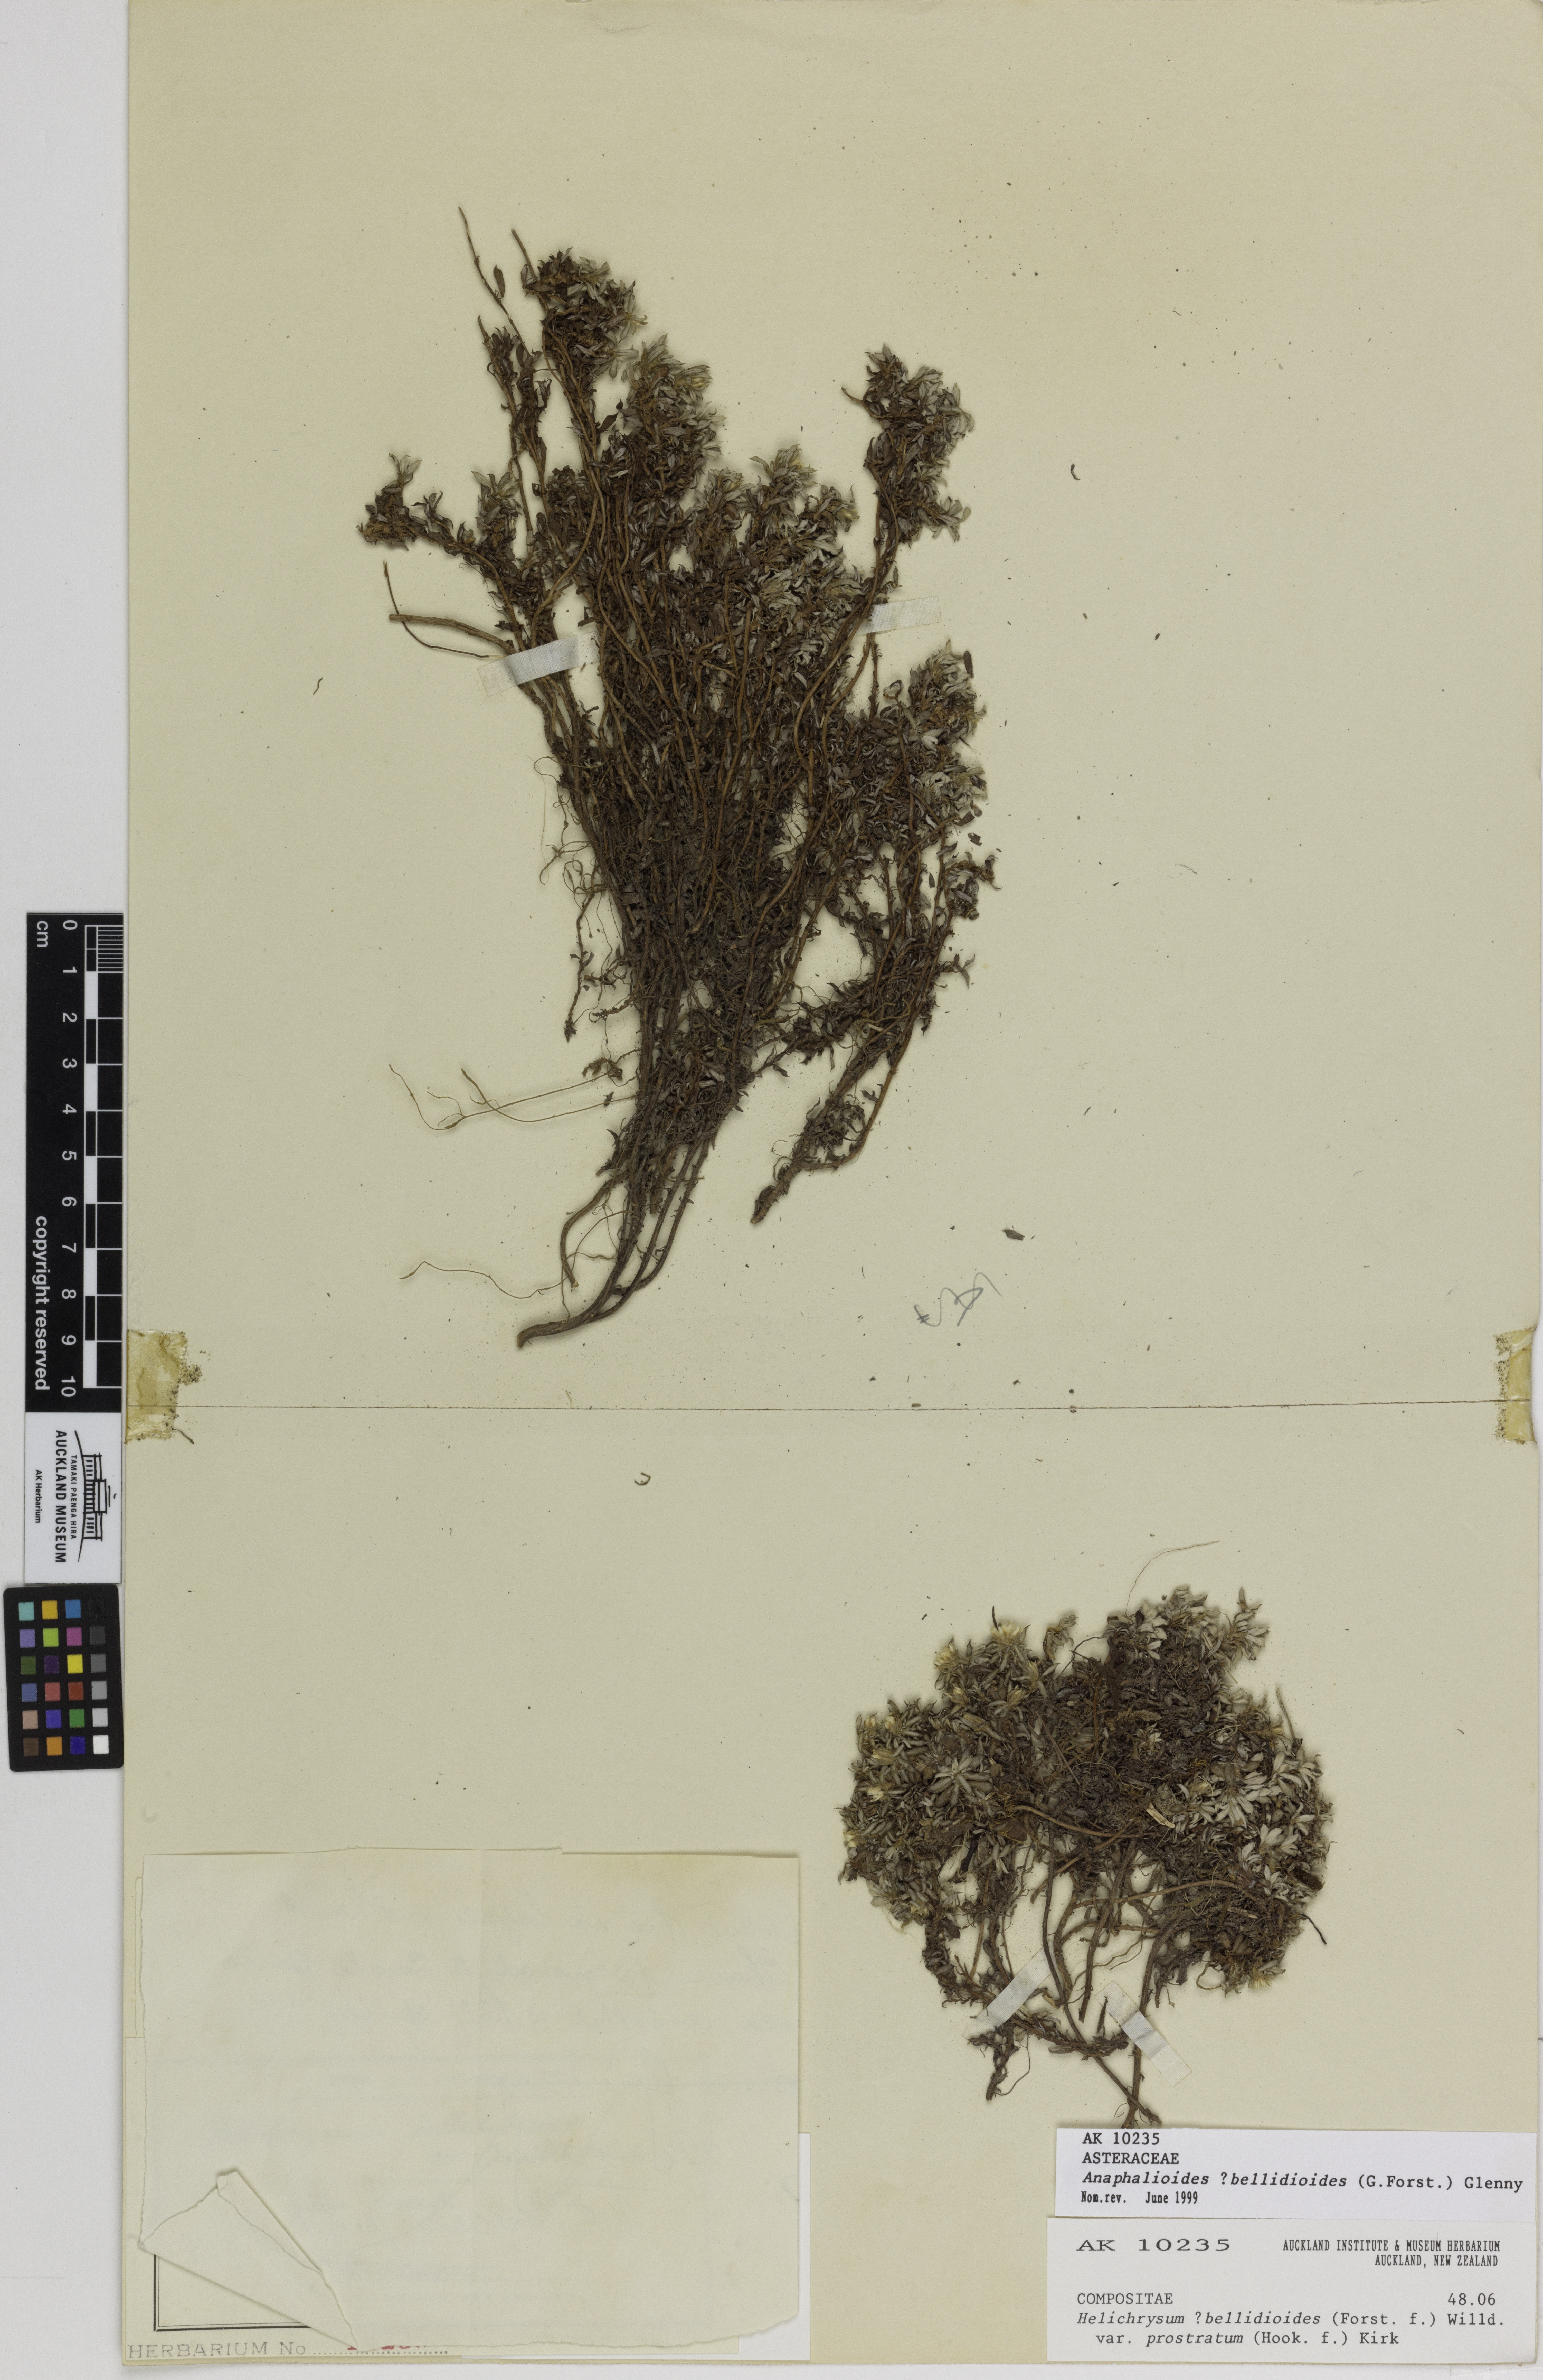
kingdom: Plantae
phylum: Tracheophyta
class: Magnoliopsida
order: Asterales
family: Asteraceae
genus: Anaphalioides
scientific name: Anaphalioides bellidioides
